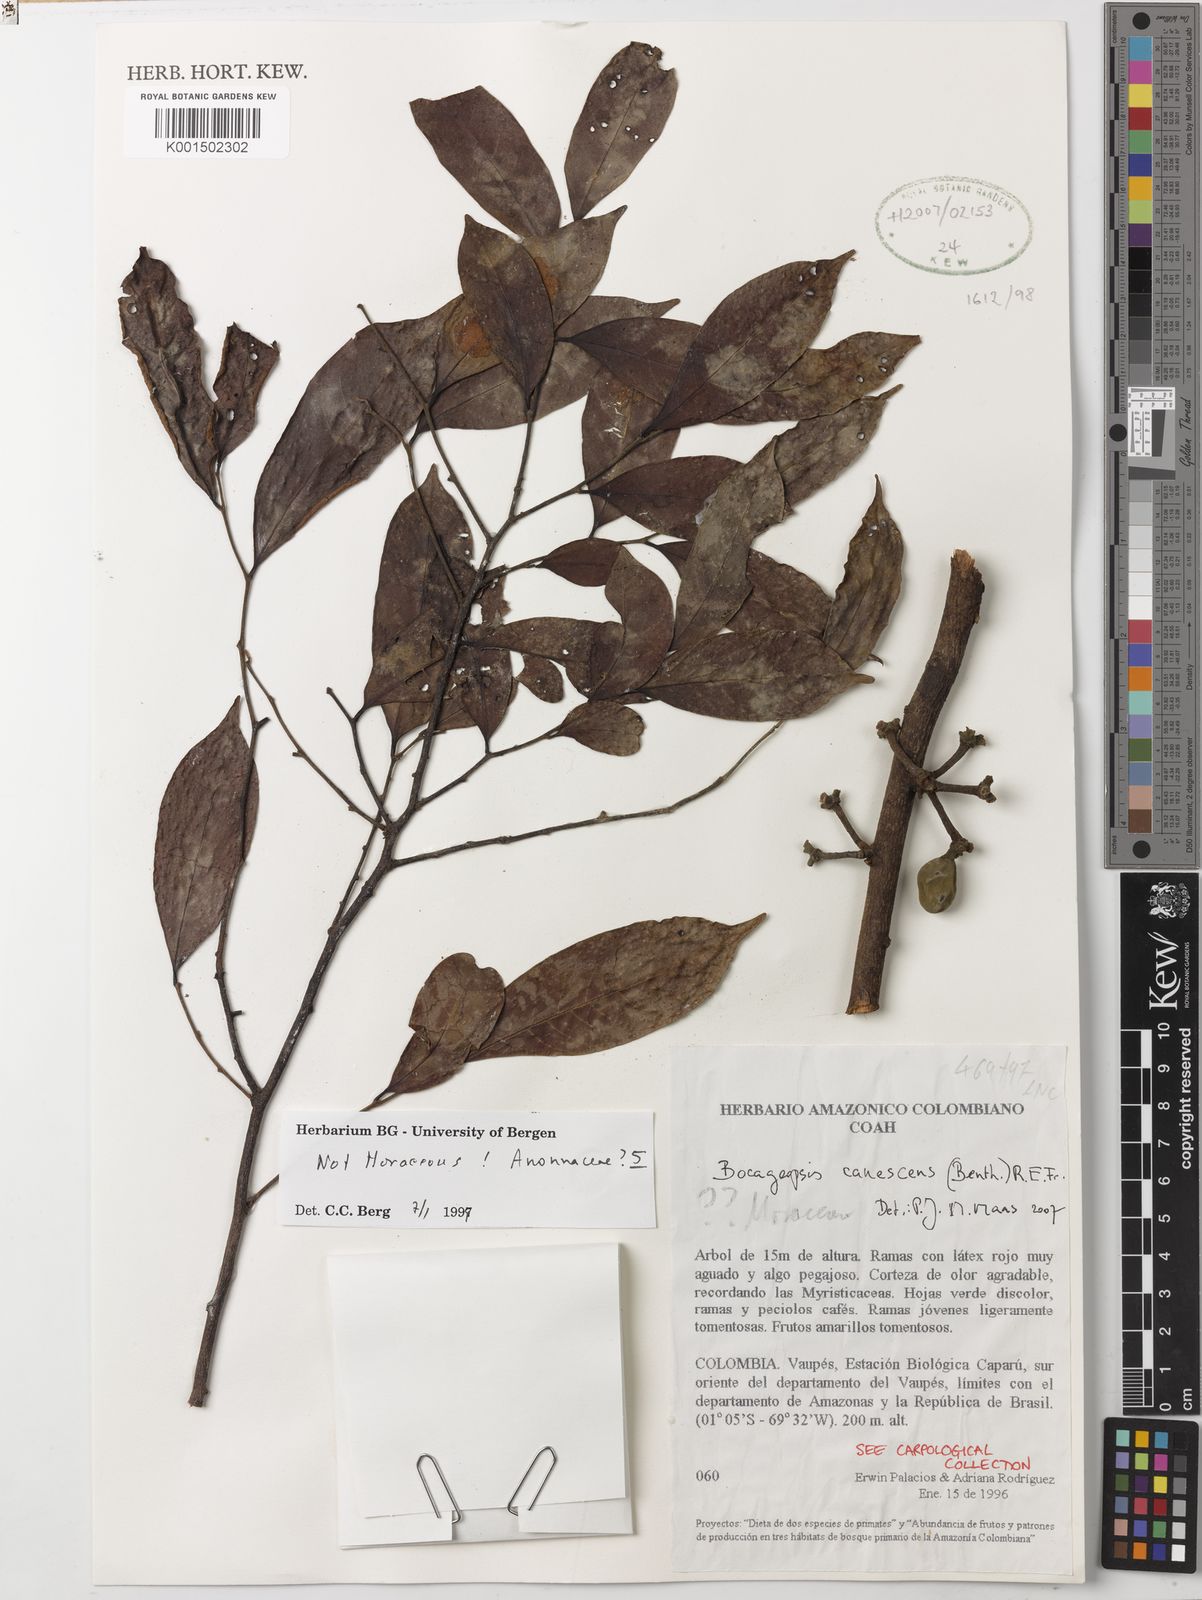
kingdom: Plantae
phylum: Tracheophyta
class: Magnoliopsida
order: Magnoliales
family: Annonaceae
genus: Bocageopsis
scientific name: Bocageopsis canescens
